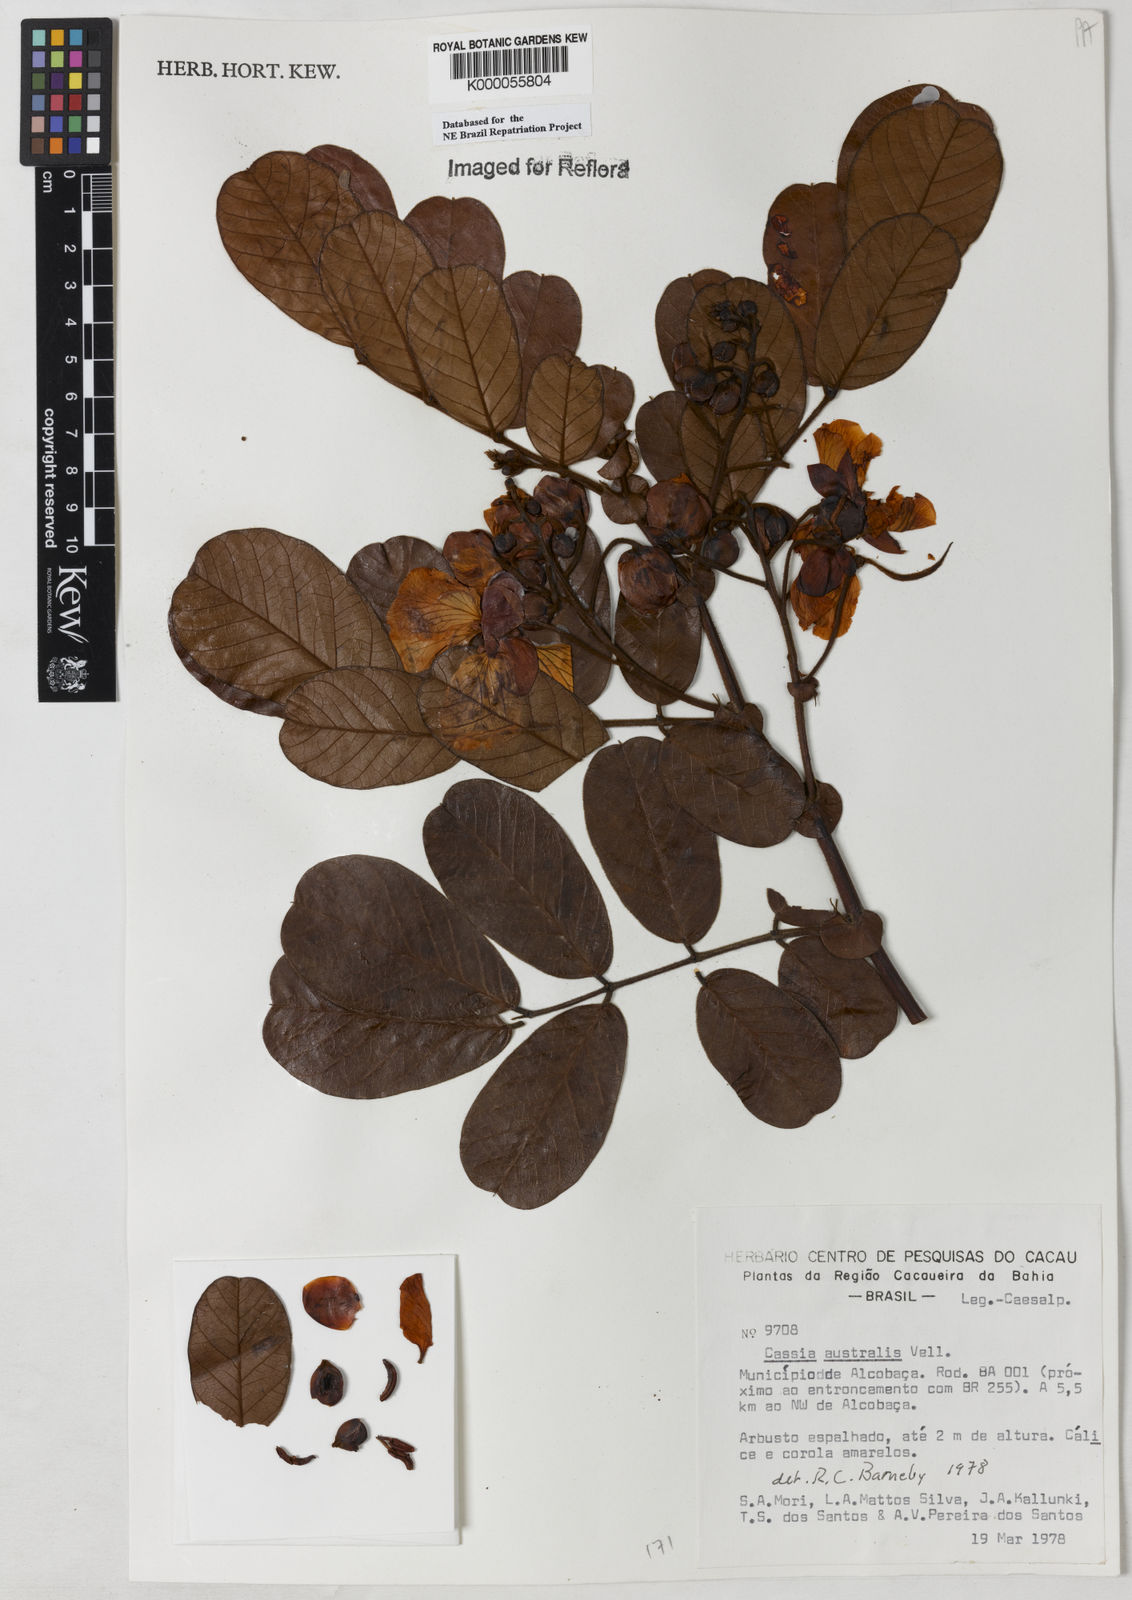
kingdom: Plantae
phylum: Tracheophyta
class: Magnoliopsida
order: Fabales
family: Fabaceae
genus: Senna
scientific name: Senna appendiculata
